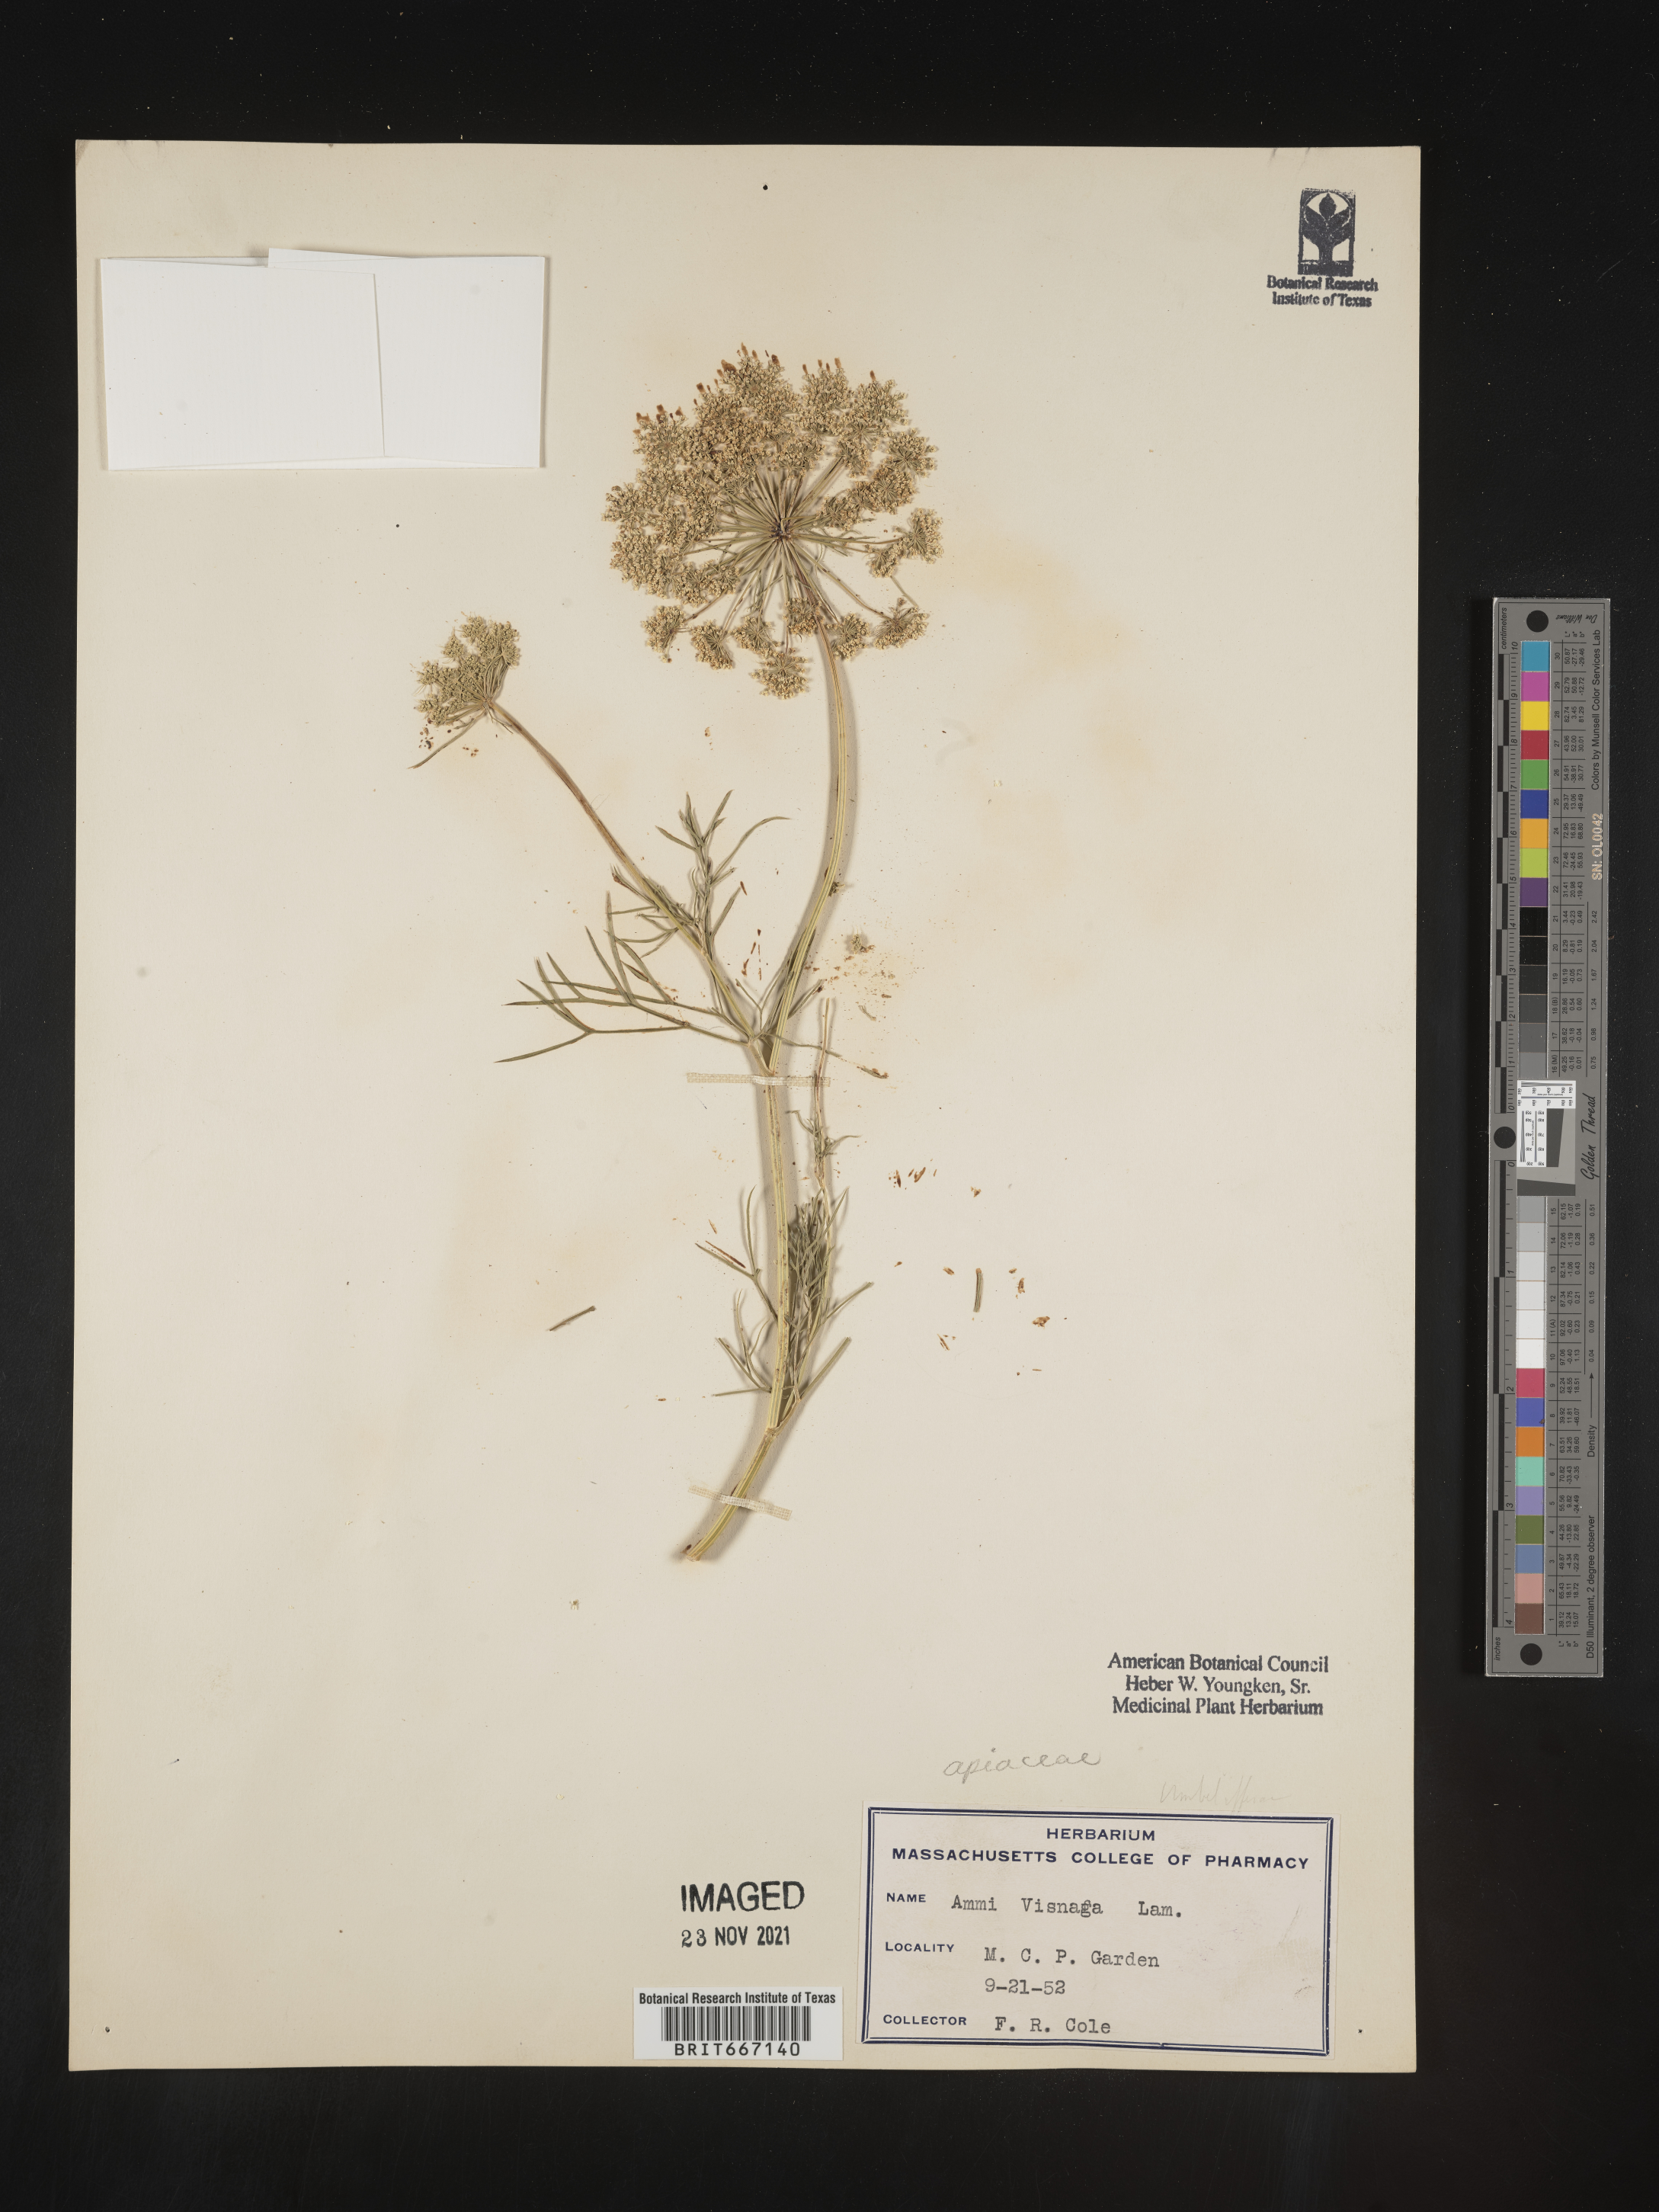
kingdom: Plantae
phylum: Tracheophyta
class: Magnoliopsida
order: Apiales
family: Apiaceae
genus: Ammi
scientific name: Ammi
